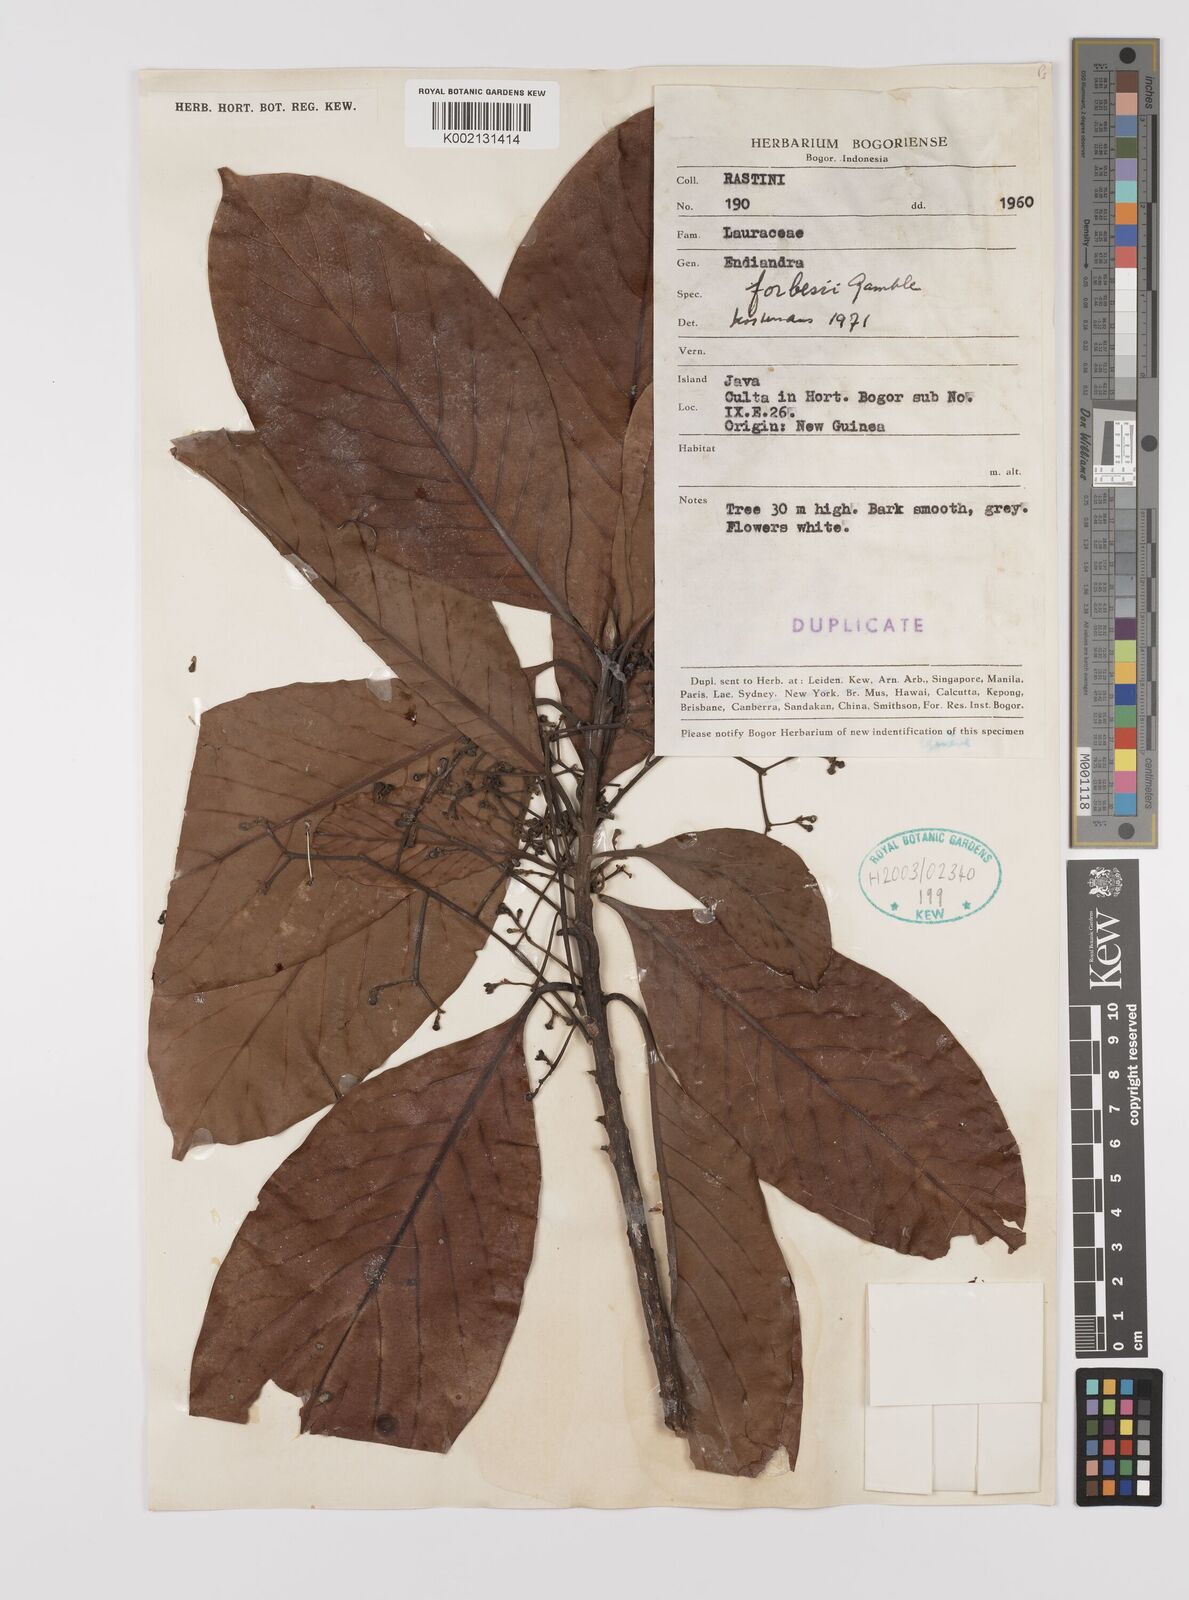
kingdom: Plantae
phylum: Tracheophyta
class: Magnoliopsida
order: Laurales
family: Lauraceae
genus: Endiandra
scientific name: Endiandra forbesii
